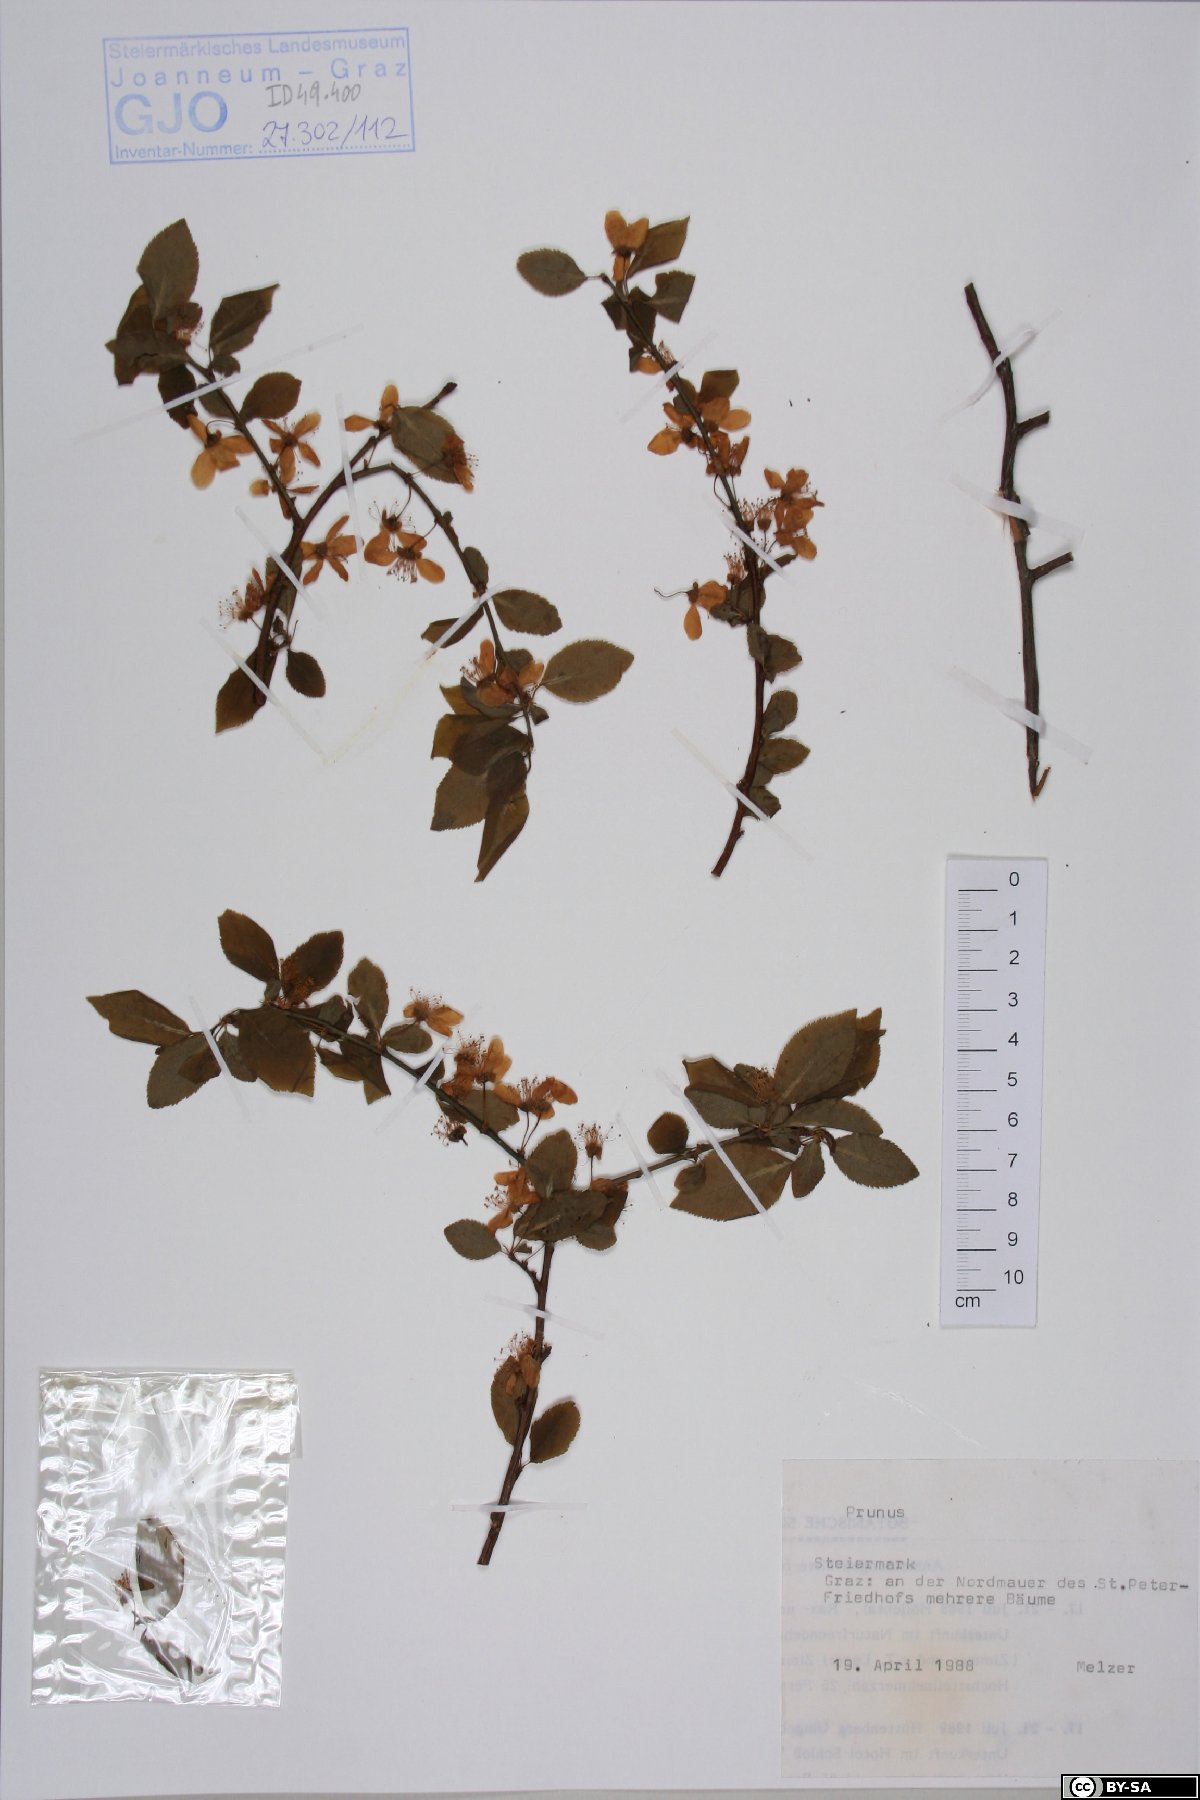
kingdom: Plantae
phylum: Tracheophyta
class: Magnoliopsida
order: Rosales
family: Rosaceae
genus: Prunus
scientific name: Prunus
